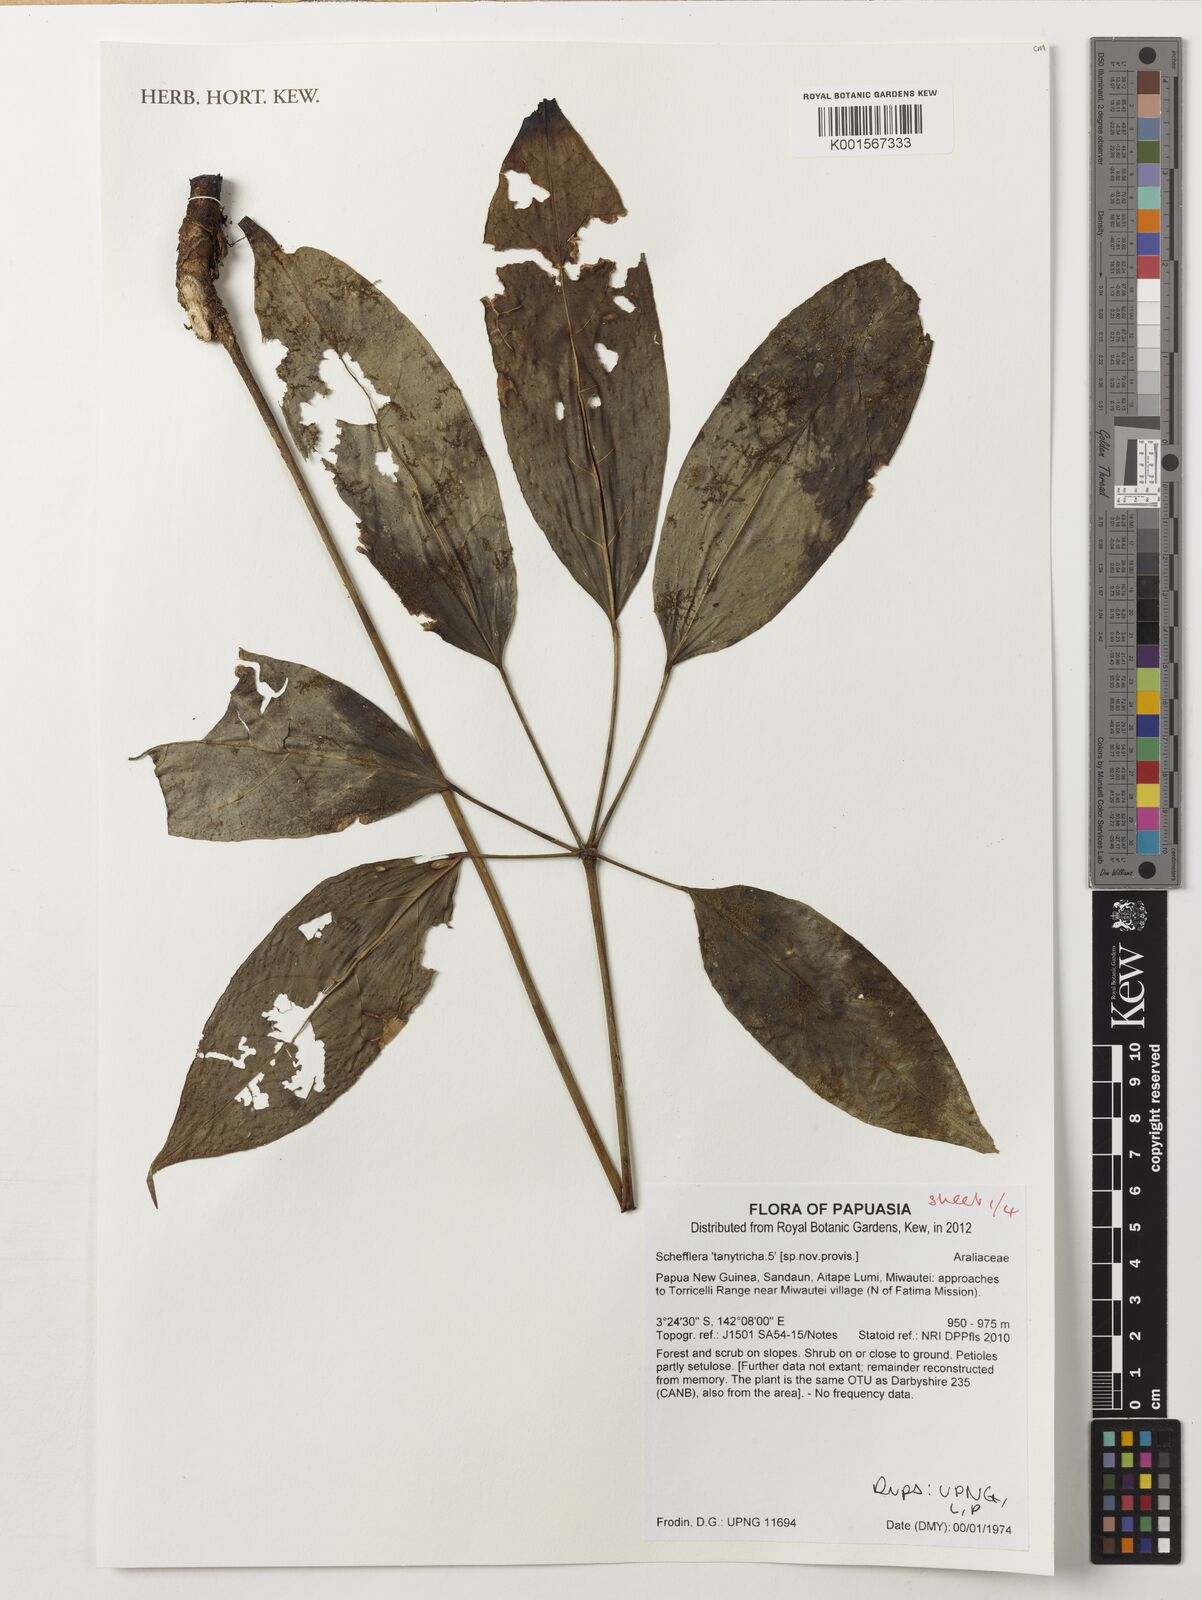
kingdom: Plantae
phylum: Tracheophyta
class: Magnoliopsida
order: Apiales
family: Araliaceae
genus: Heptapleurum
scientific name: Heptapleurum tanytrichum
